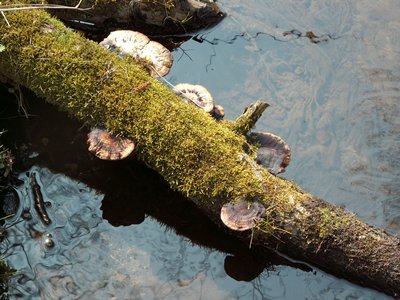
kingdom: Fungi
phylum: Basidiomycota
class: Agaricomycetes
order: Polyporales
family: Polyporaceae
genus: Daedaleopsis
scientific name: Daedaleopsis confragosa
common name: rødmende læderporesvamp
